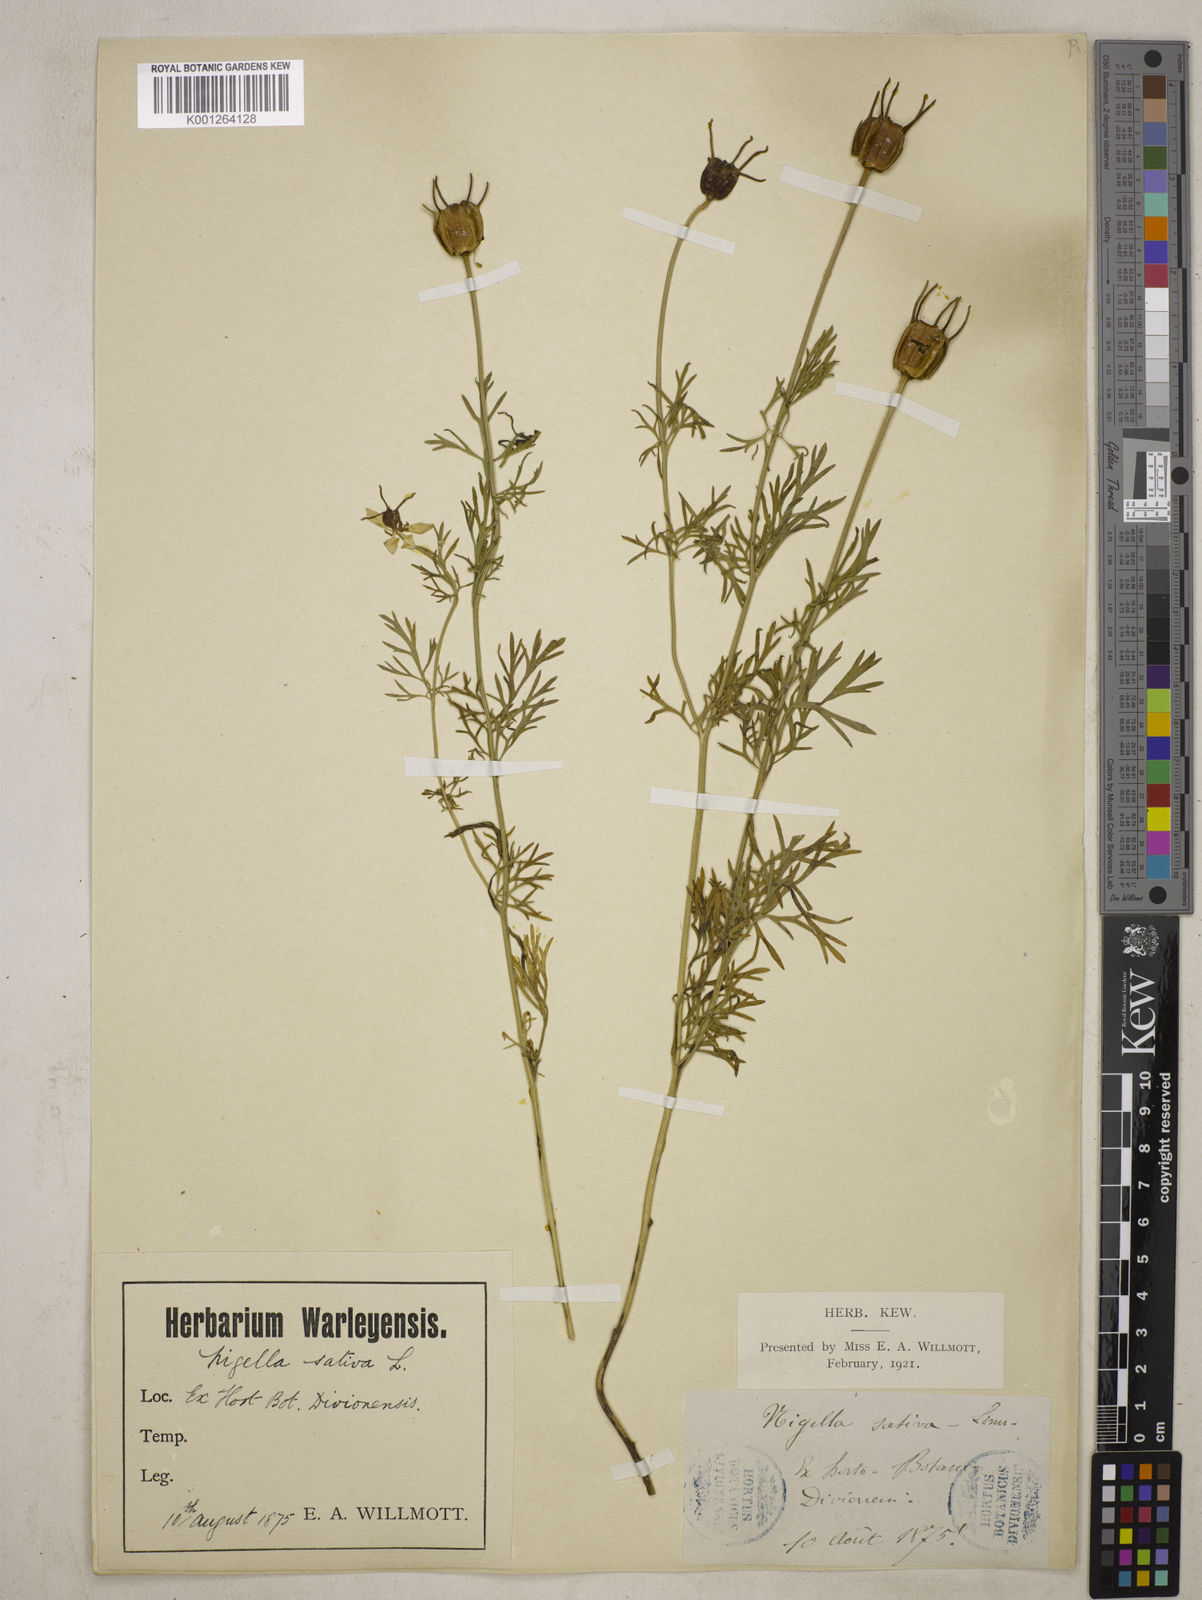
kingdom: Plantae
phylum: Tracheophyta
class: Magnoliopsida
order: Ranunculales
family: Ranunculaceae
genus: Nigella
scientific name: Nigella sativa
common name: Black-cumin
